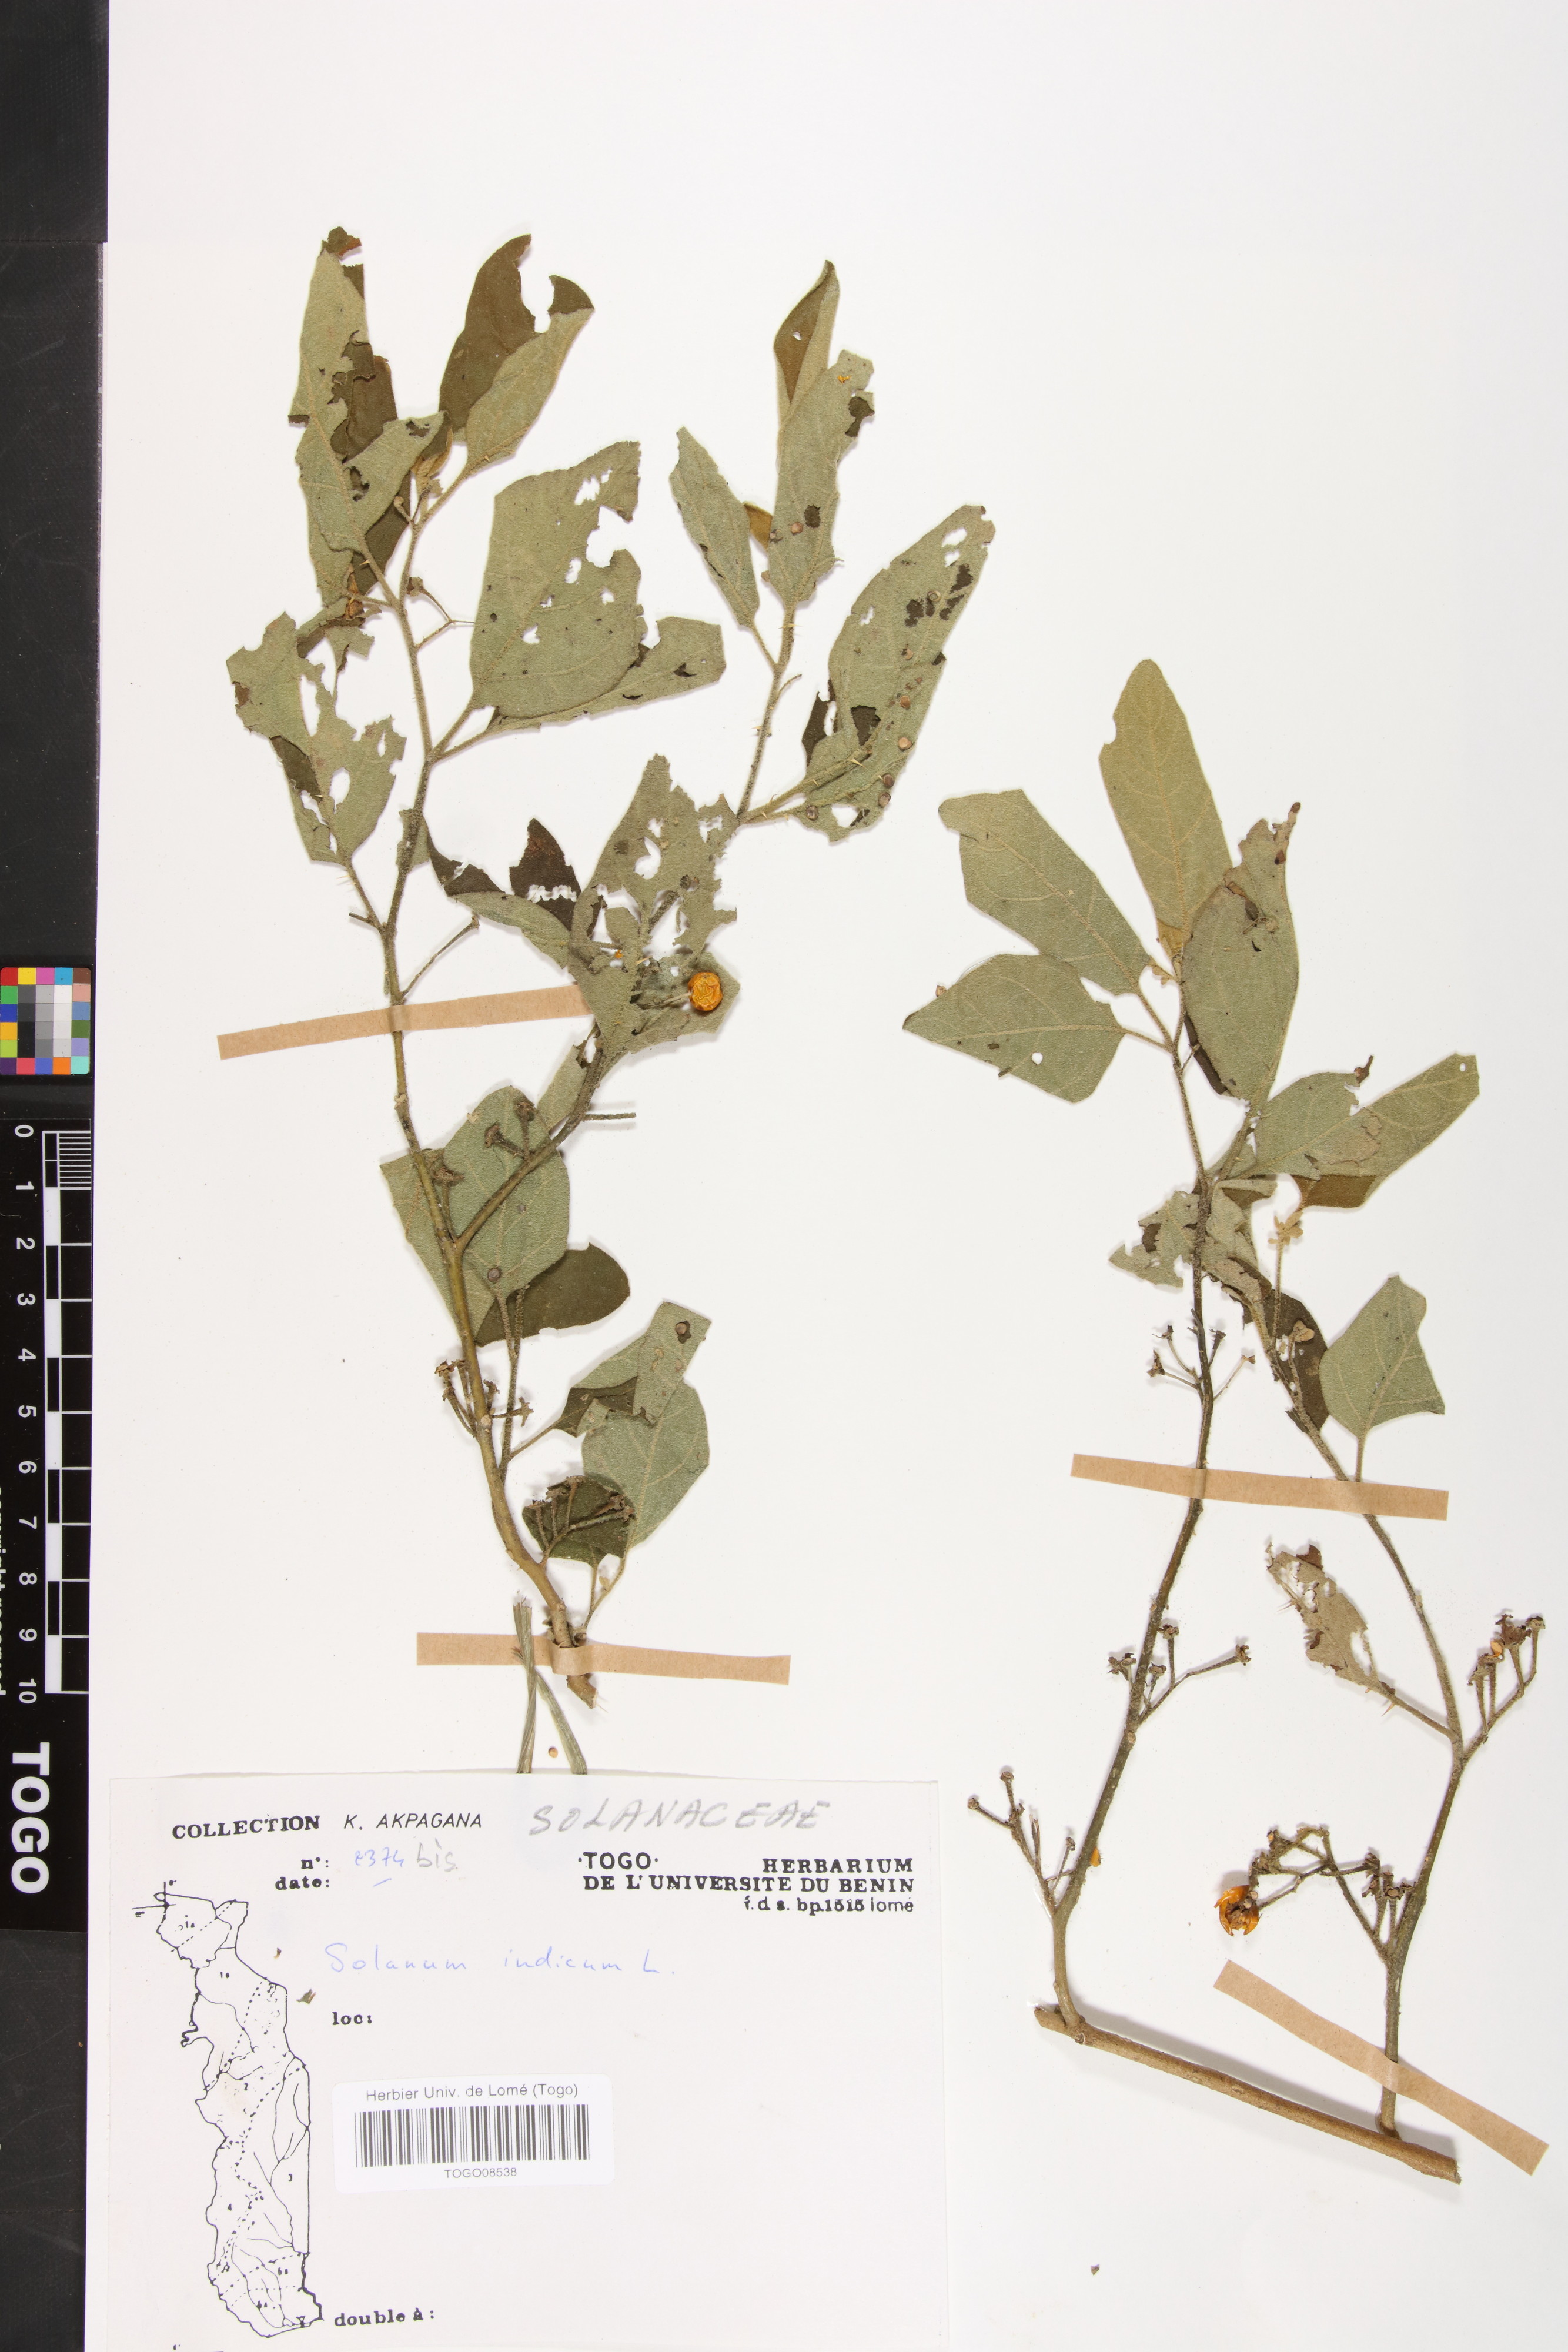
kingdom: Plantae
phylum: Tracheophyta
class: Magnoliopsida
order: Solanales
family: Solanaceae
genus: Solanum
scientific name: Solanum violaceum
